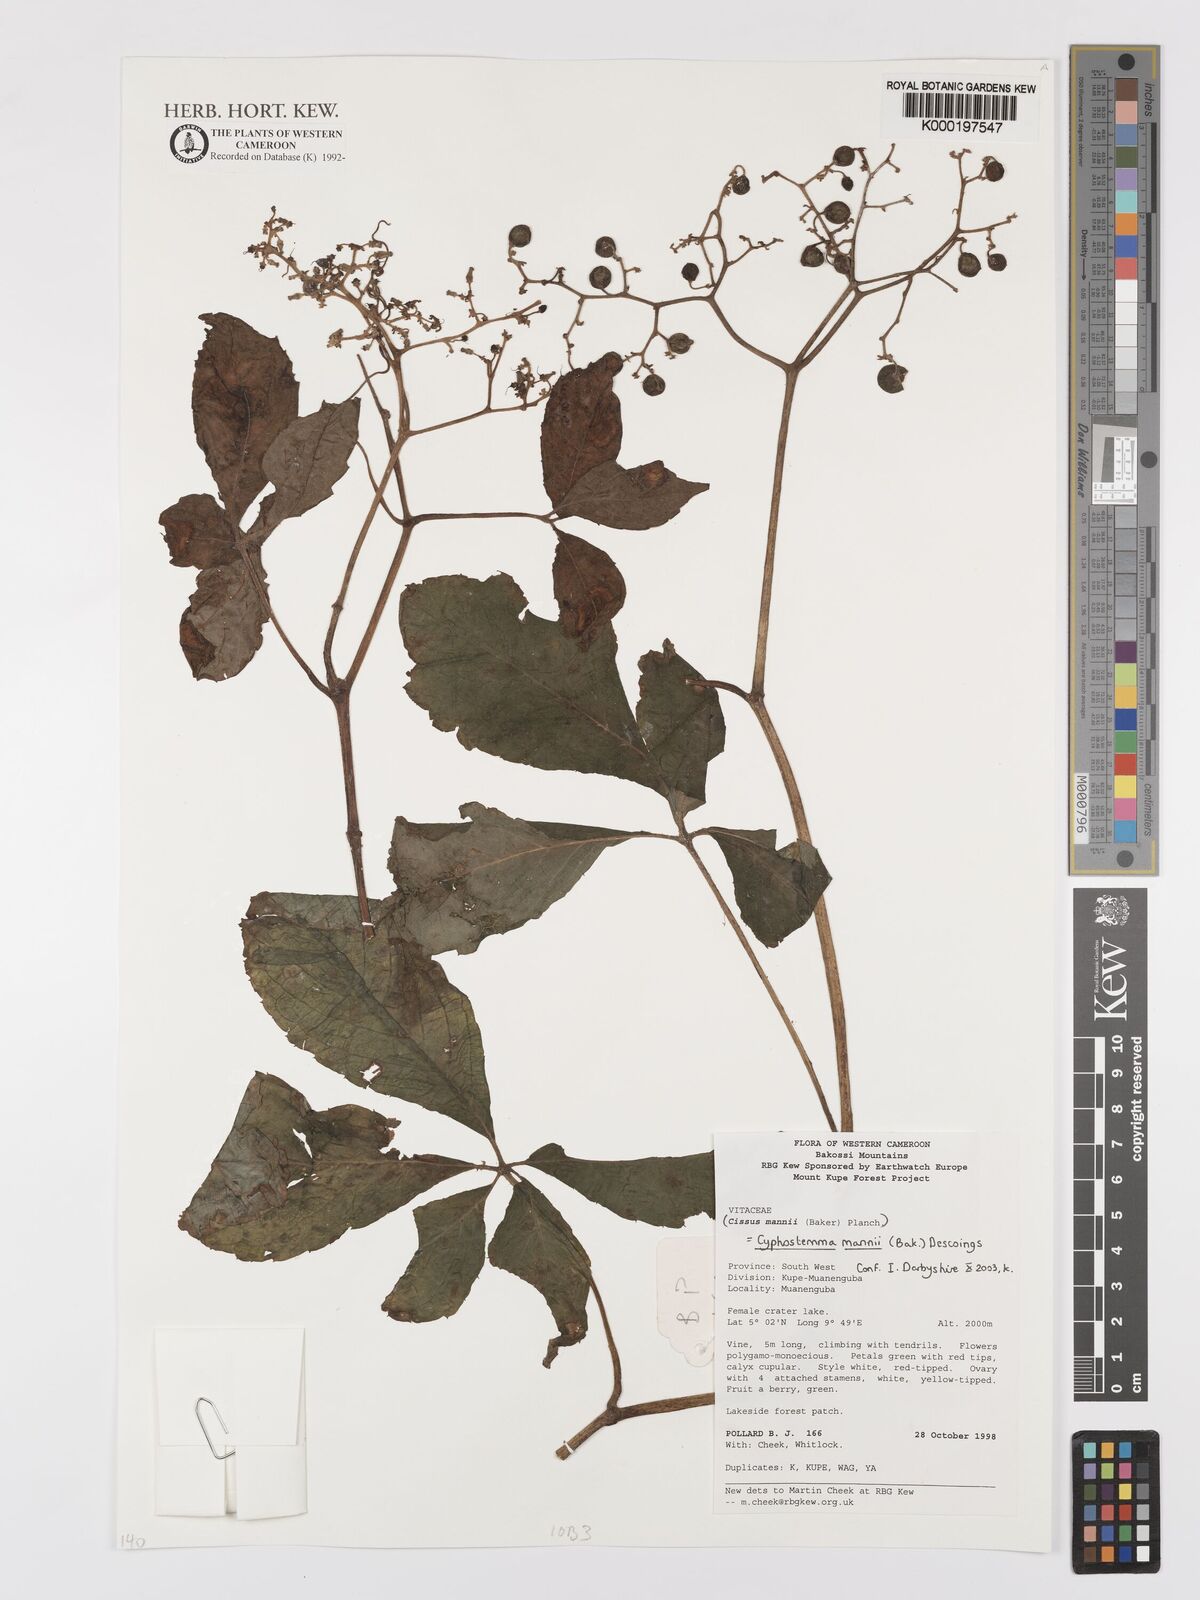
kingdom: Plantae
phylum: Tracheophyta
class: Magnoliopsida
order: Vitales
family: Vitaceae
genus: Cyphostemma
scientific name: Cyphostemma mannii
